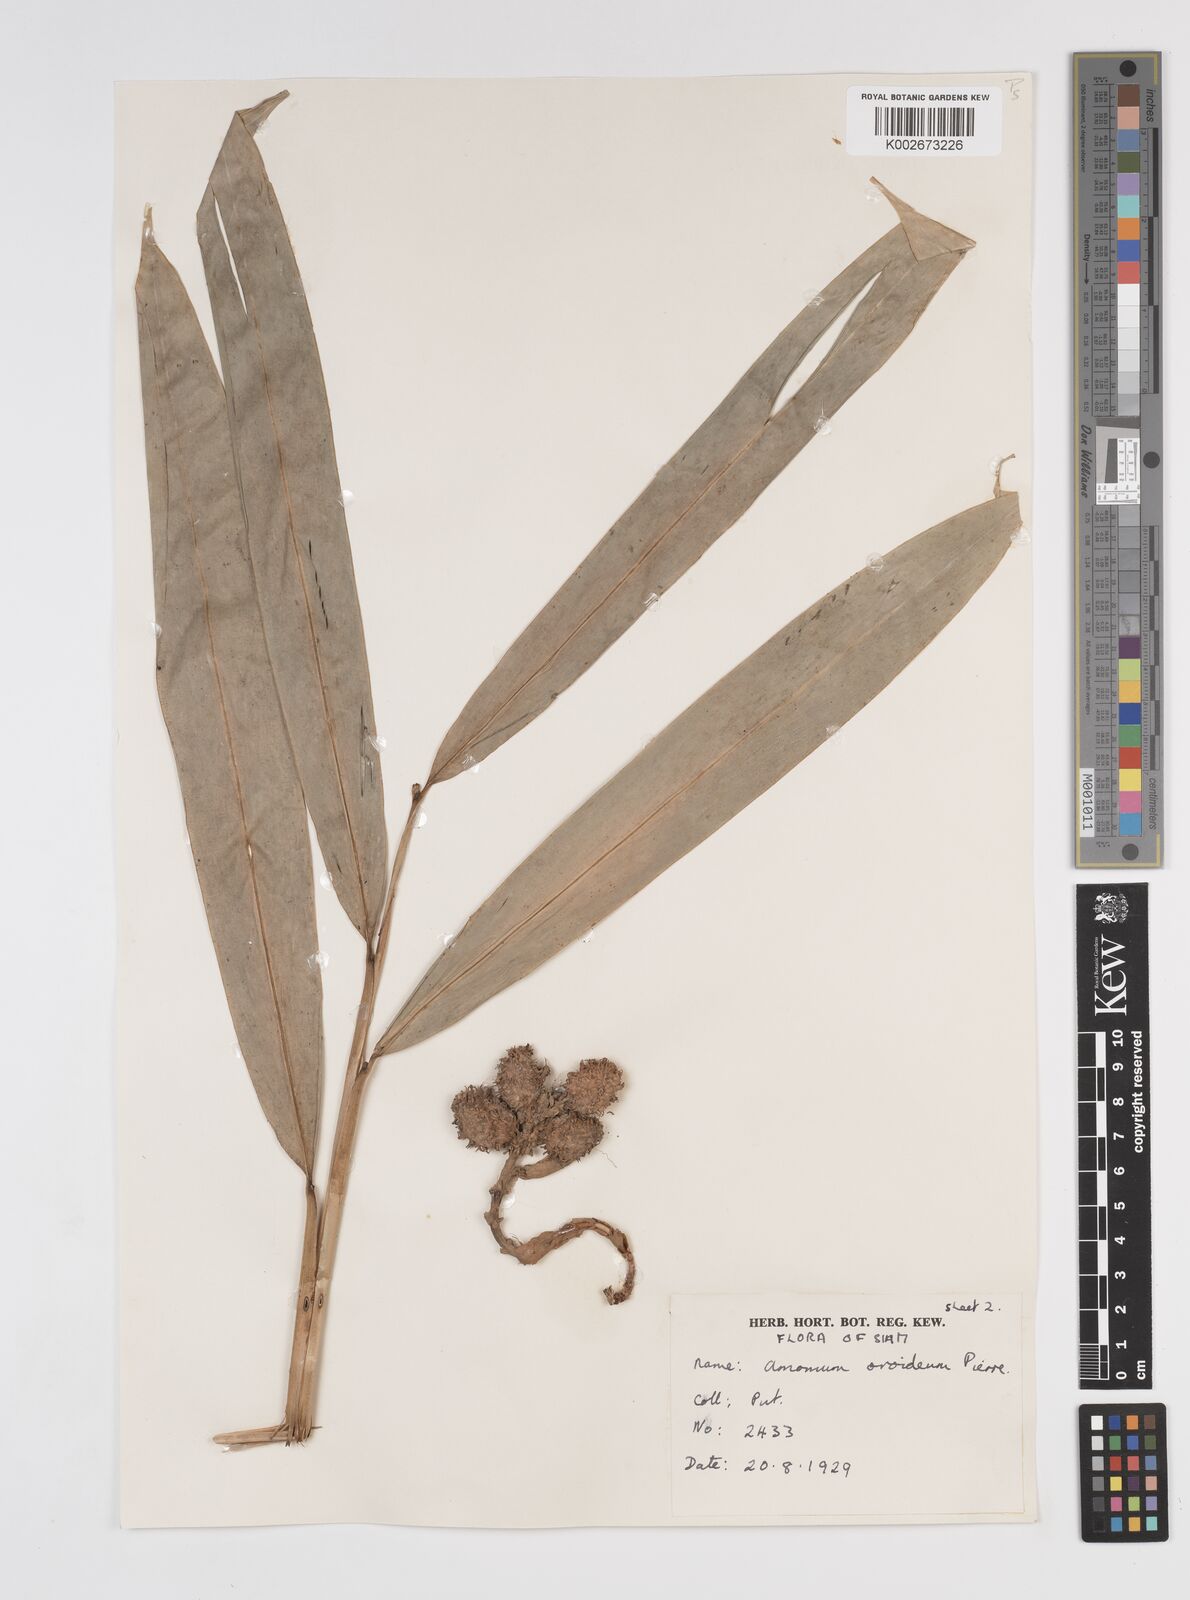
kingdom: Plantae
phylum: Tracheophyta
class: Liliopsida
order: Zingiberales
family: Zingiberaceae
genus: Wurfbainia
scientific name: Wurfbainia uliginosa
